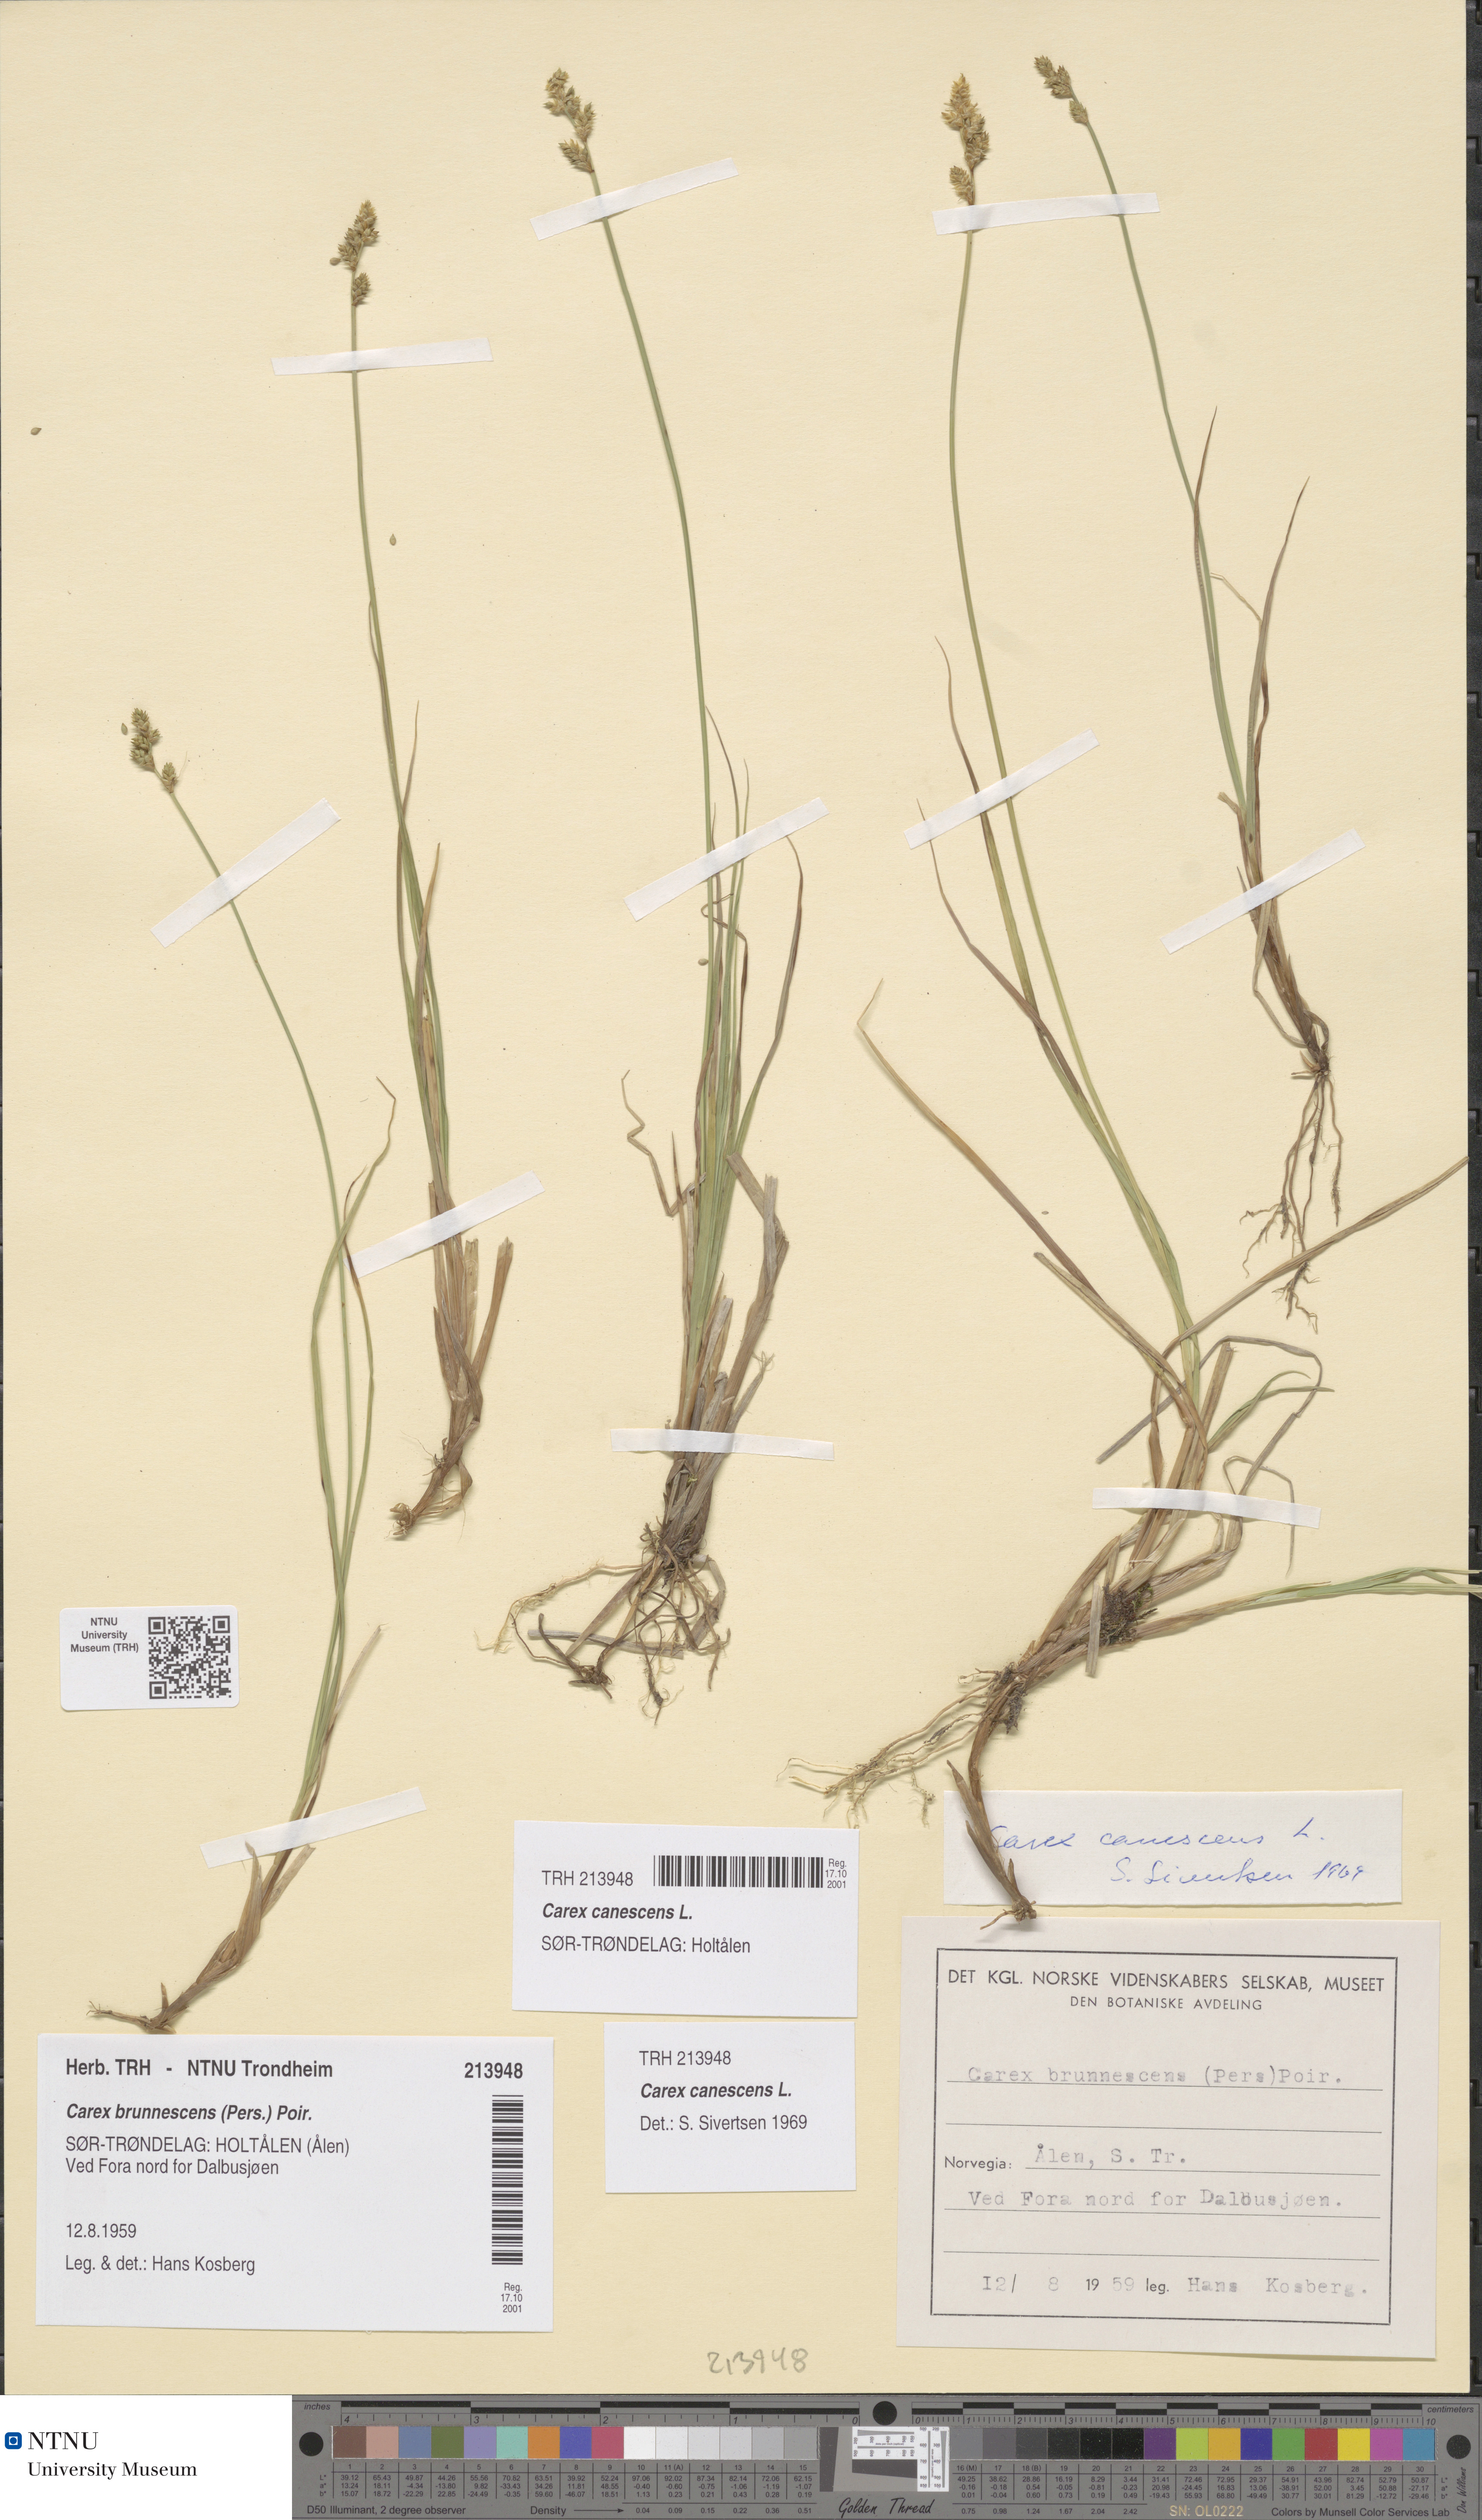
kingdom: Plantae
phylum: Tracheophyta
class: Liliopsida
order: Poales
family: Cyperaceae
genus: Carex
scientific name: Carex canescens
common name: White sedge
